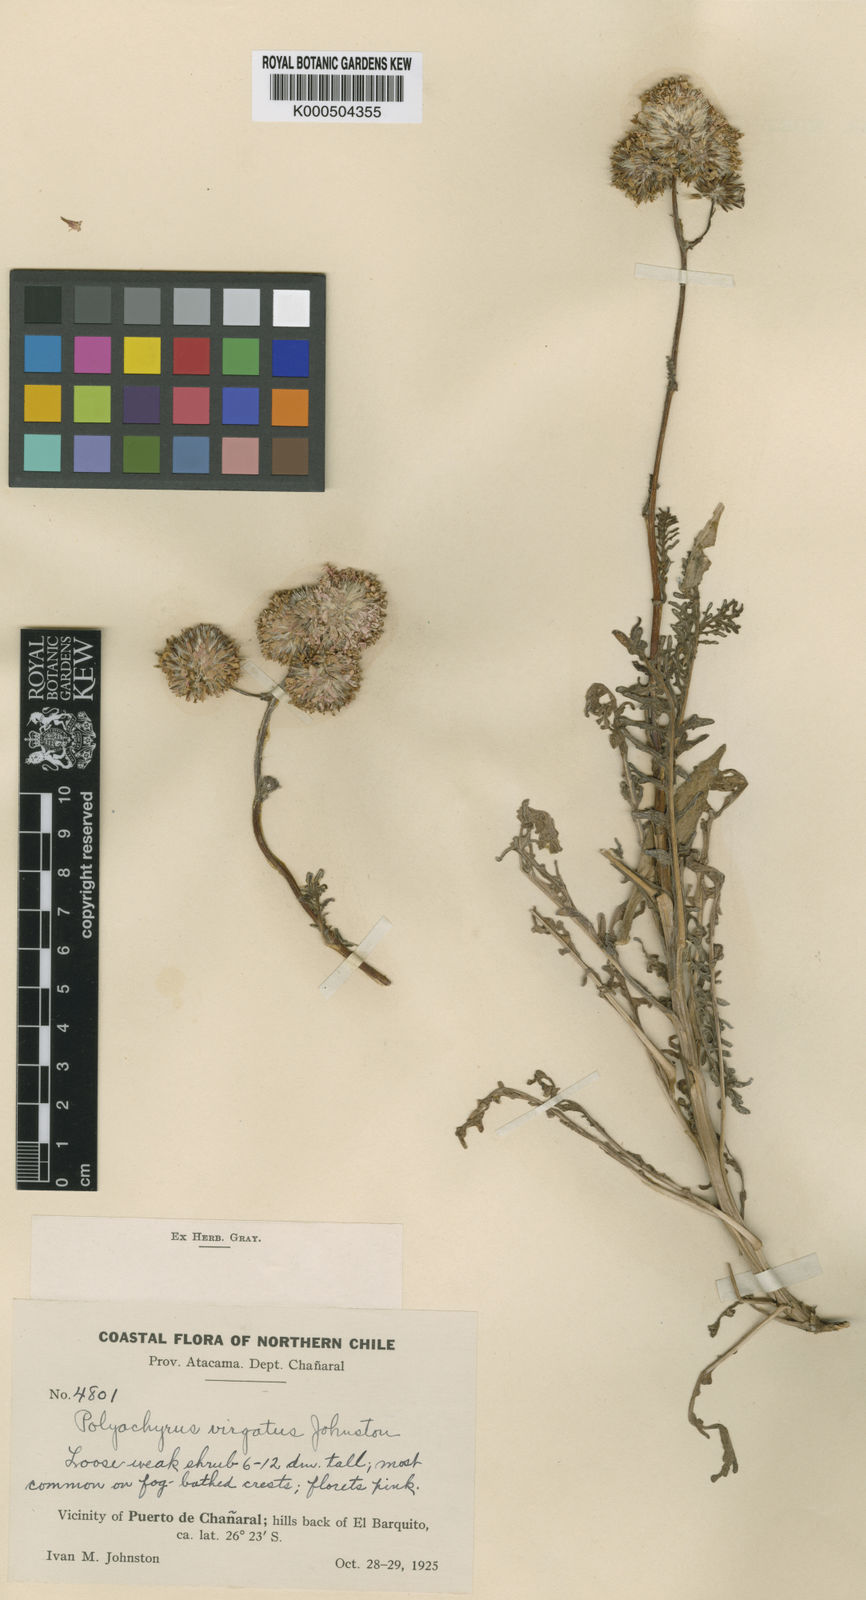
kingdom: Plantae
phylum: Tracheophyta
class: Magnoliopsida
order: Asterales
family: Asteraceae
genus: Polyachyrus
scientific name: Polyachyrus poeppigii
